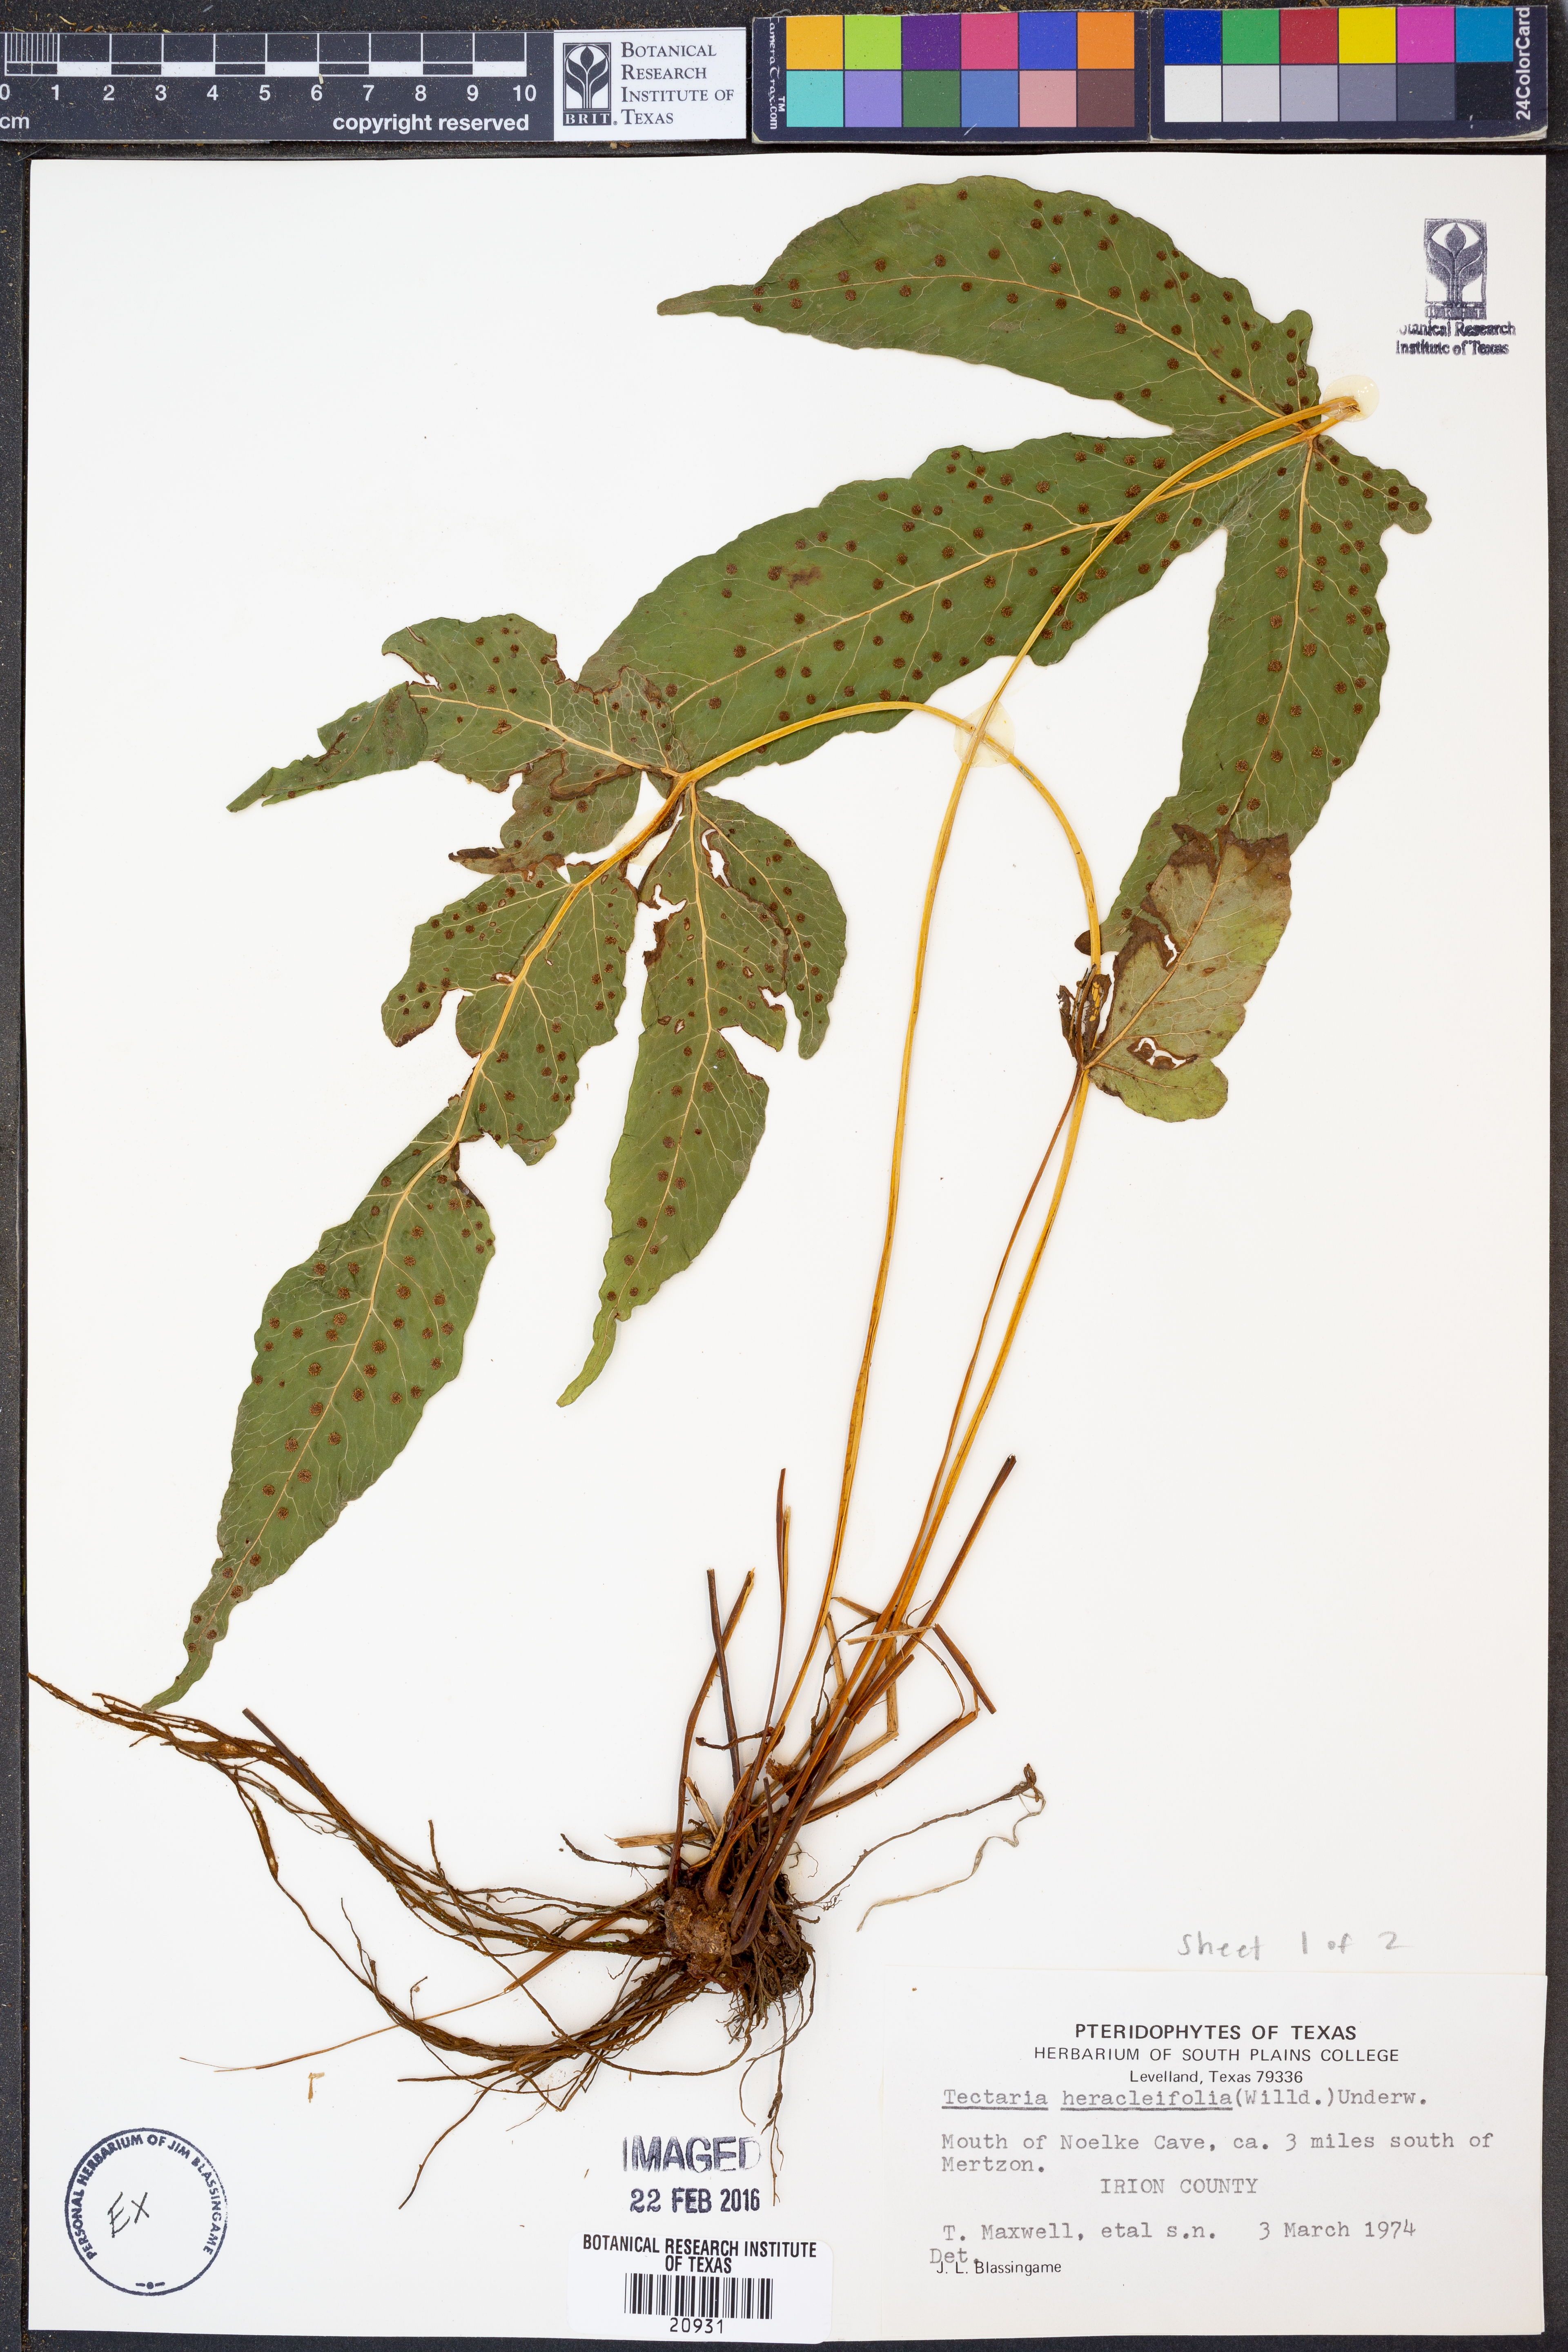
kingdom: Plantae
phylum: Tracheophyta
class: Polypodiopsida
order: Polypodiales
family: Tectariaceae
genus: Tectaria
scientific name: Tectaria heracleifolia
